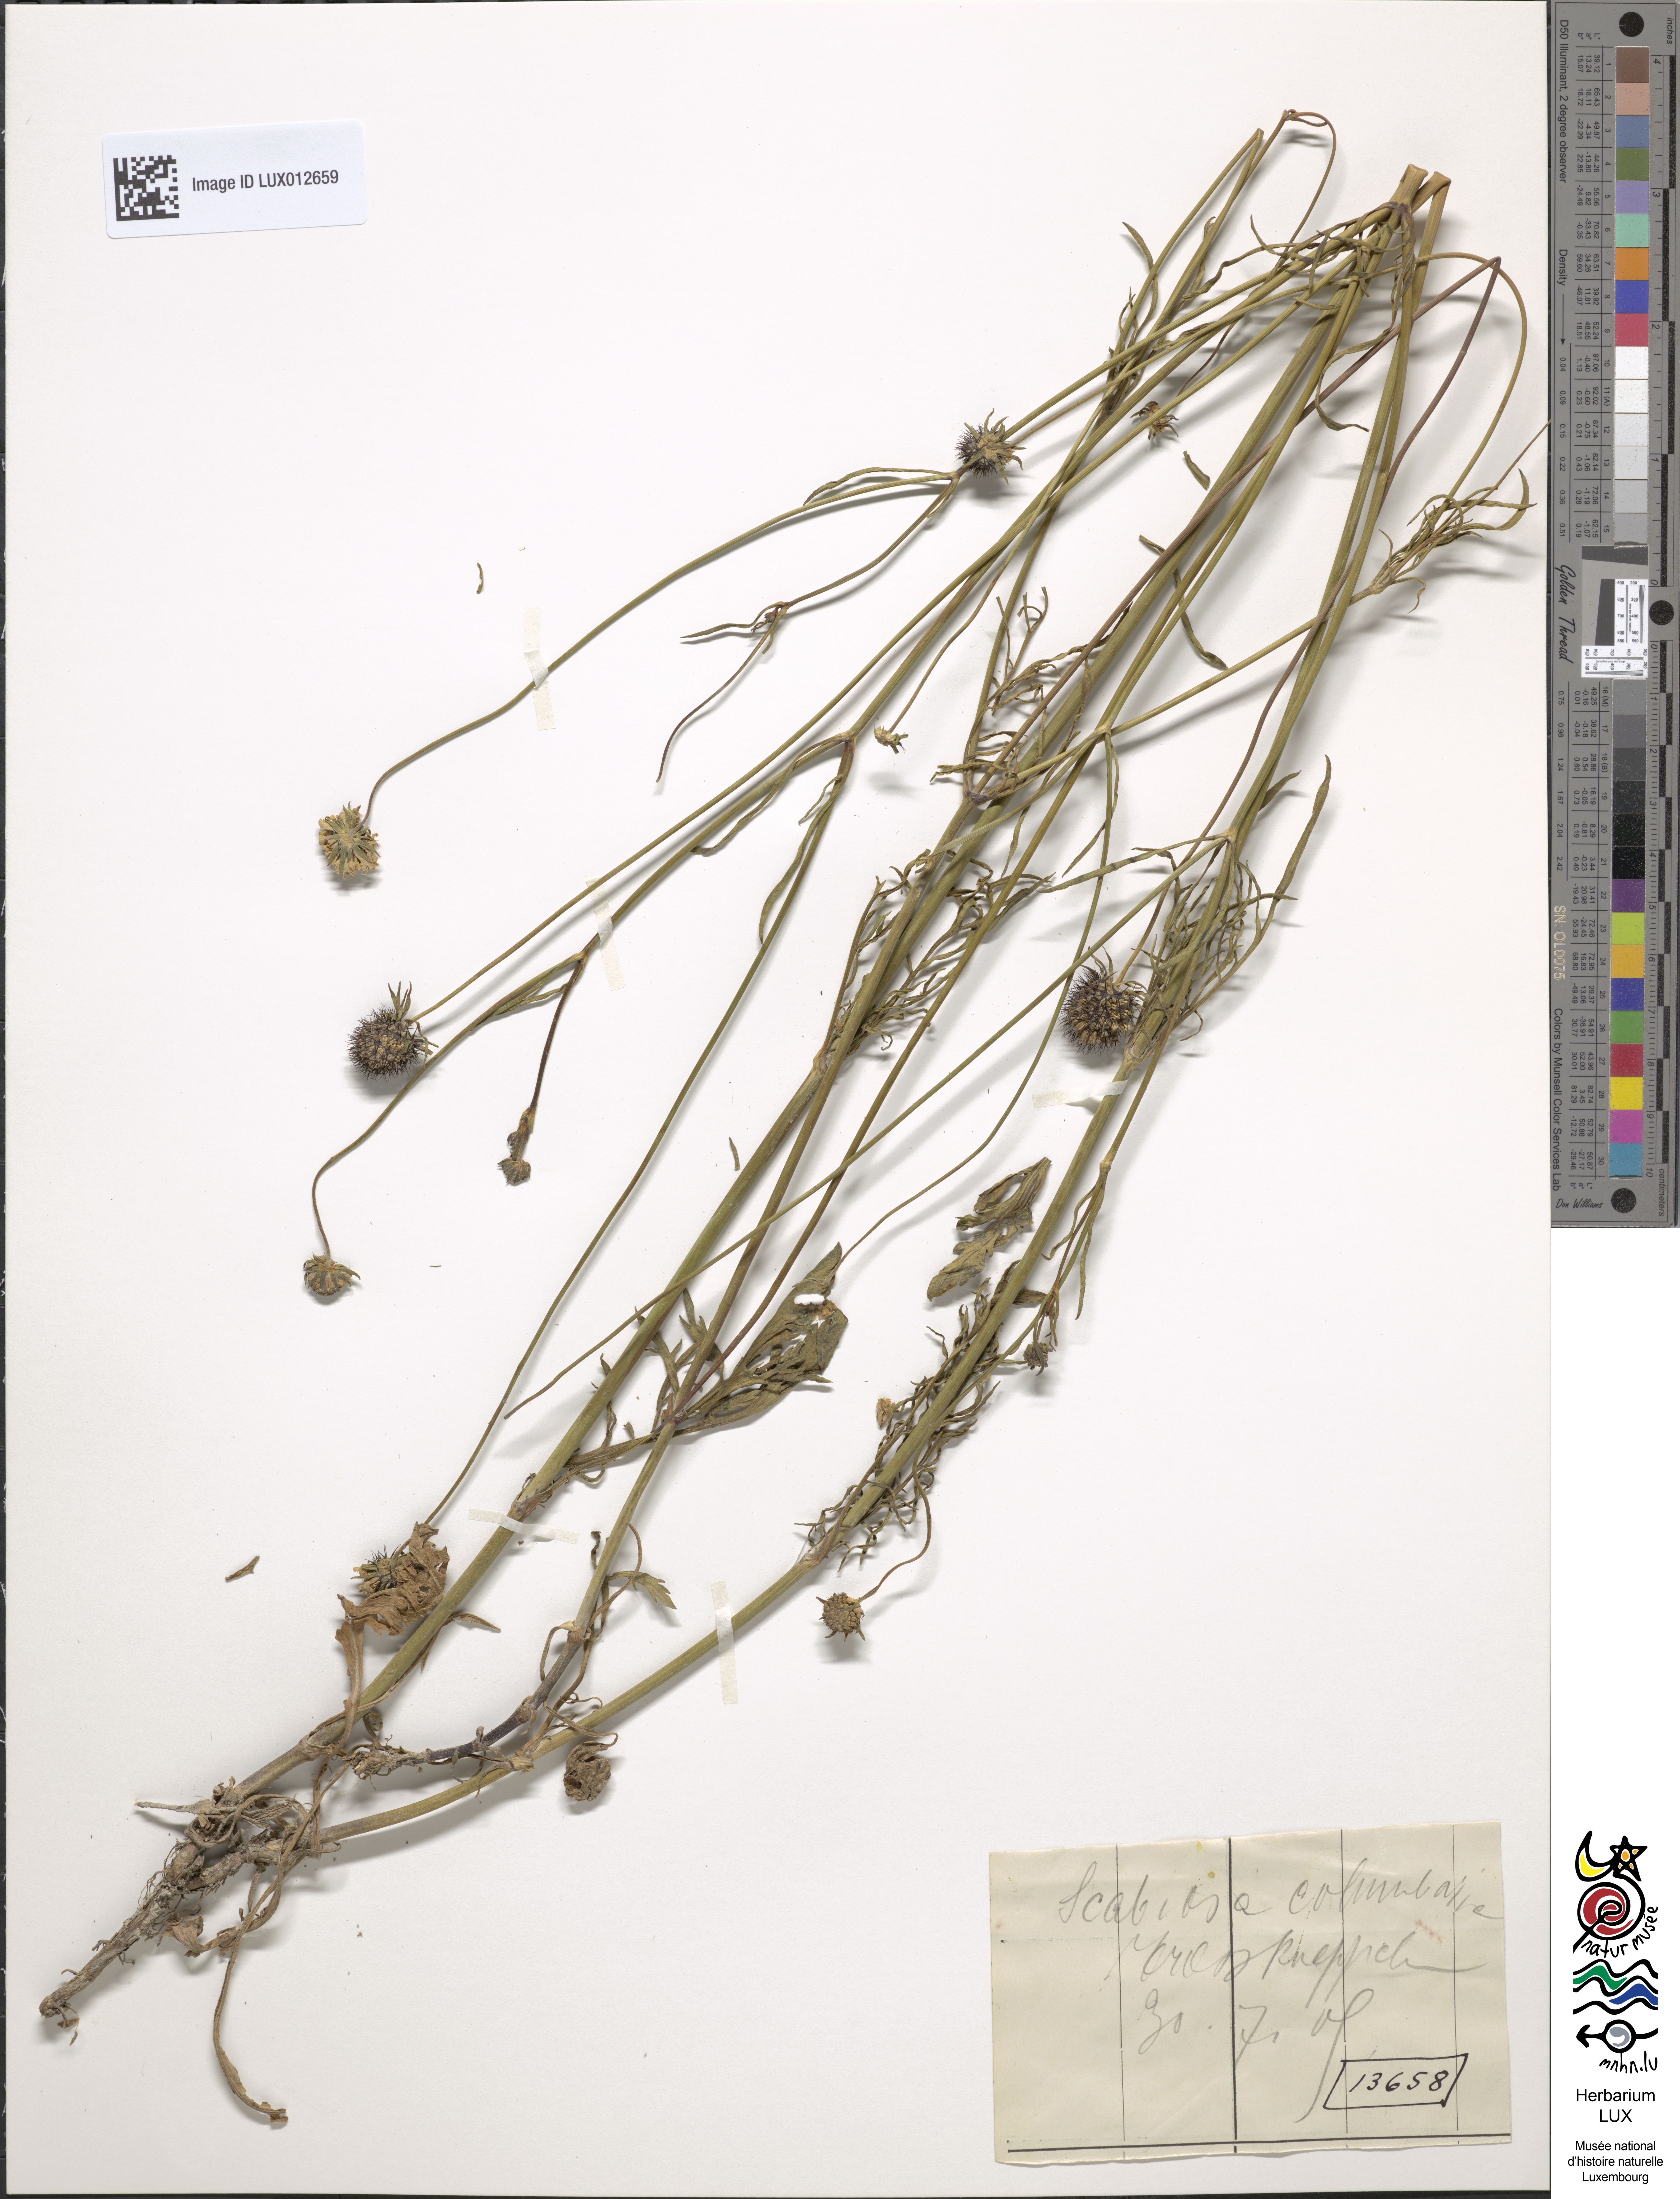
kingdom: Plantae
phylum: Tracheophyta
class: Magnoliopsida
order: Dipsacales
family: Caprifoliaceae
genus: Scabiosa
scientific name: Scabiosa columbaria
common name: Small scabious
